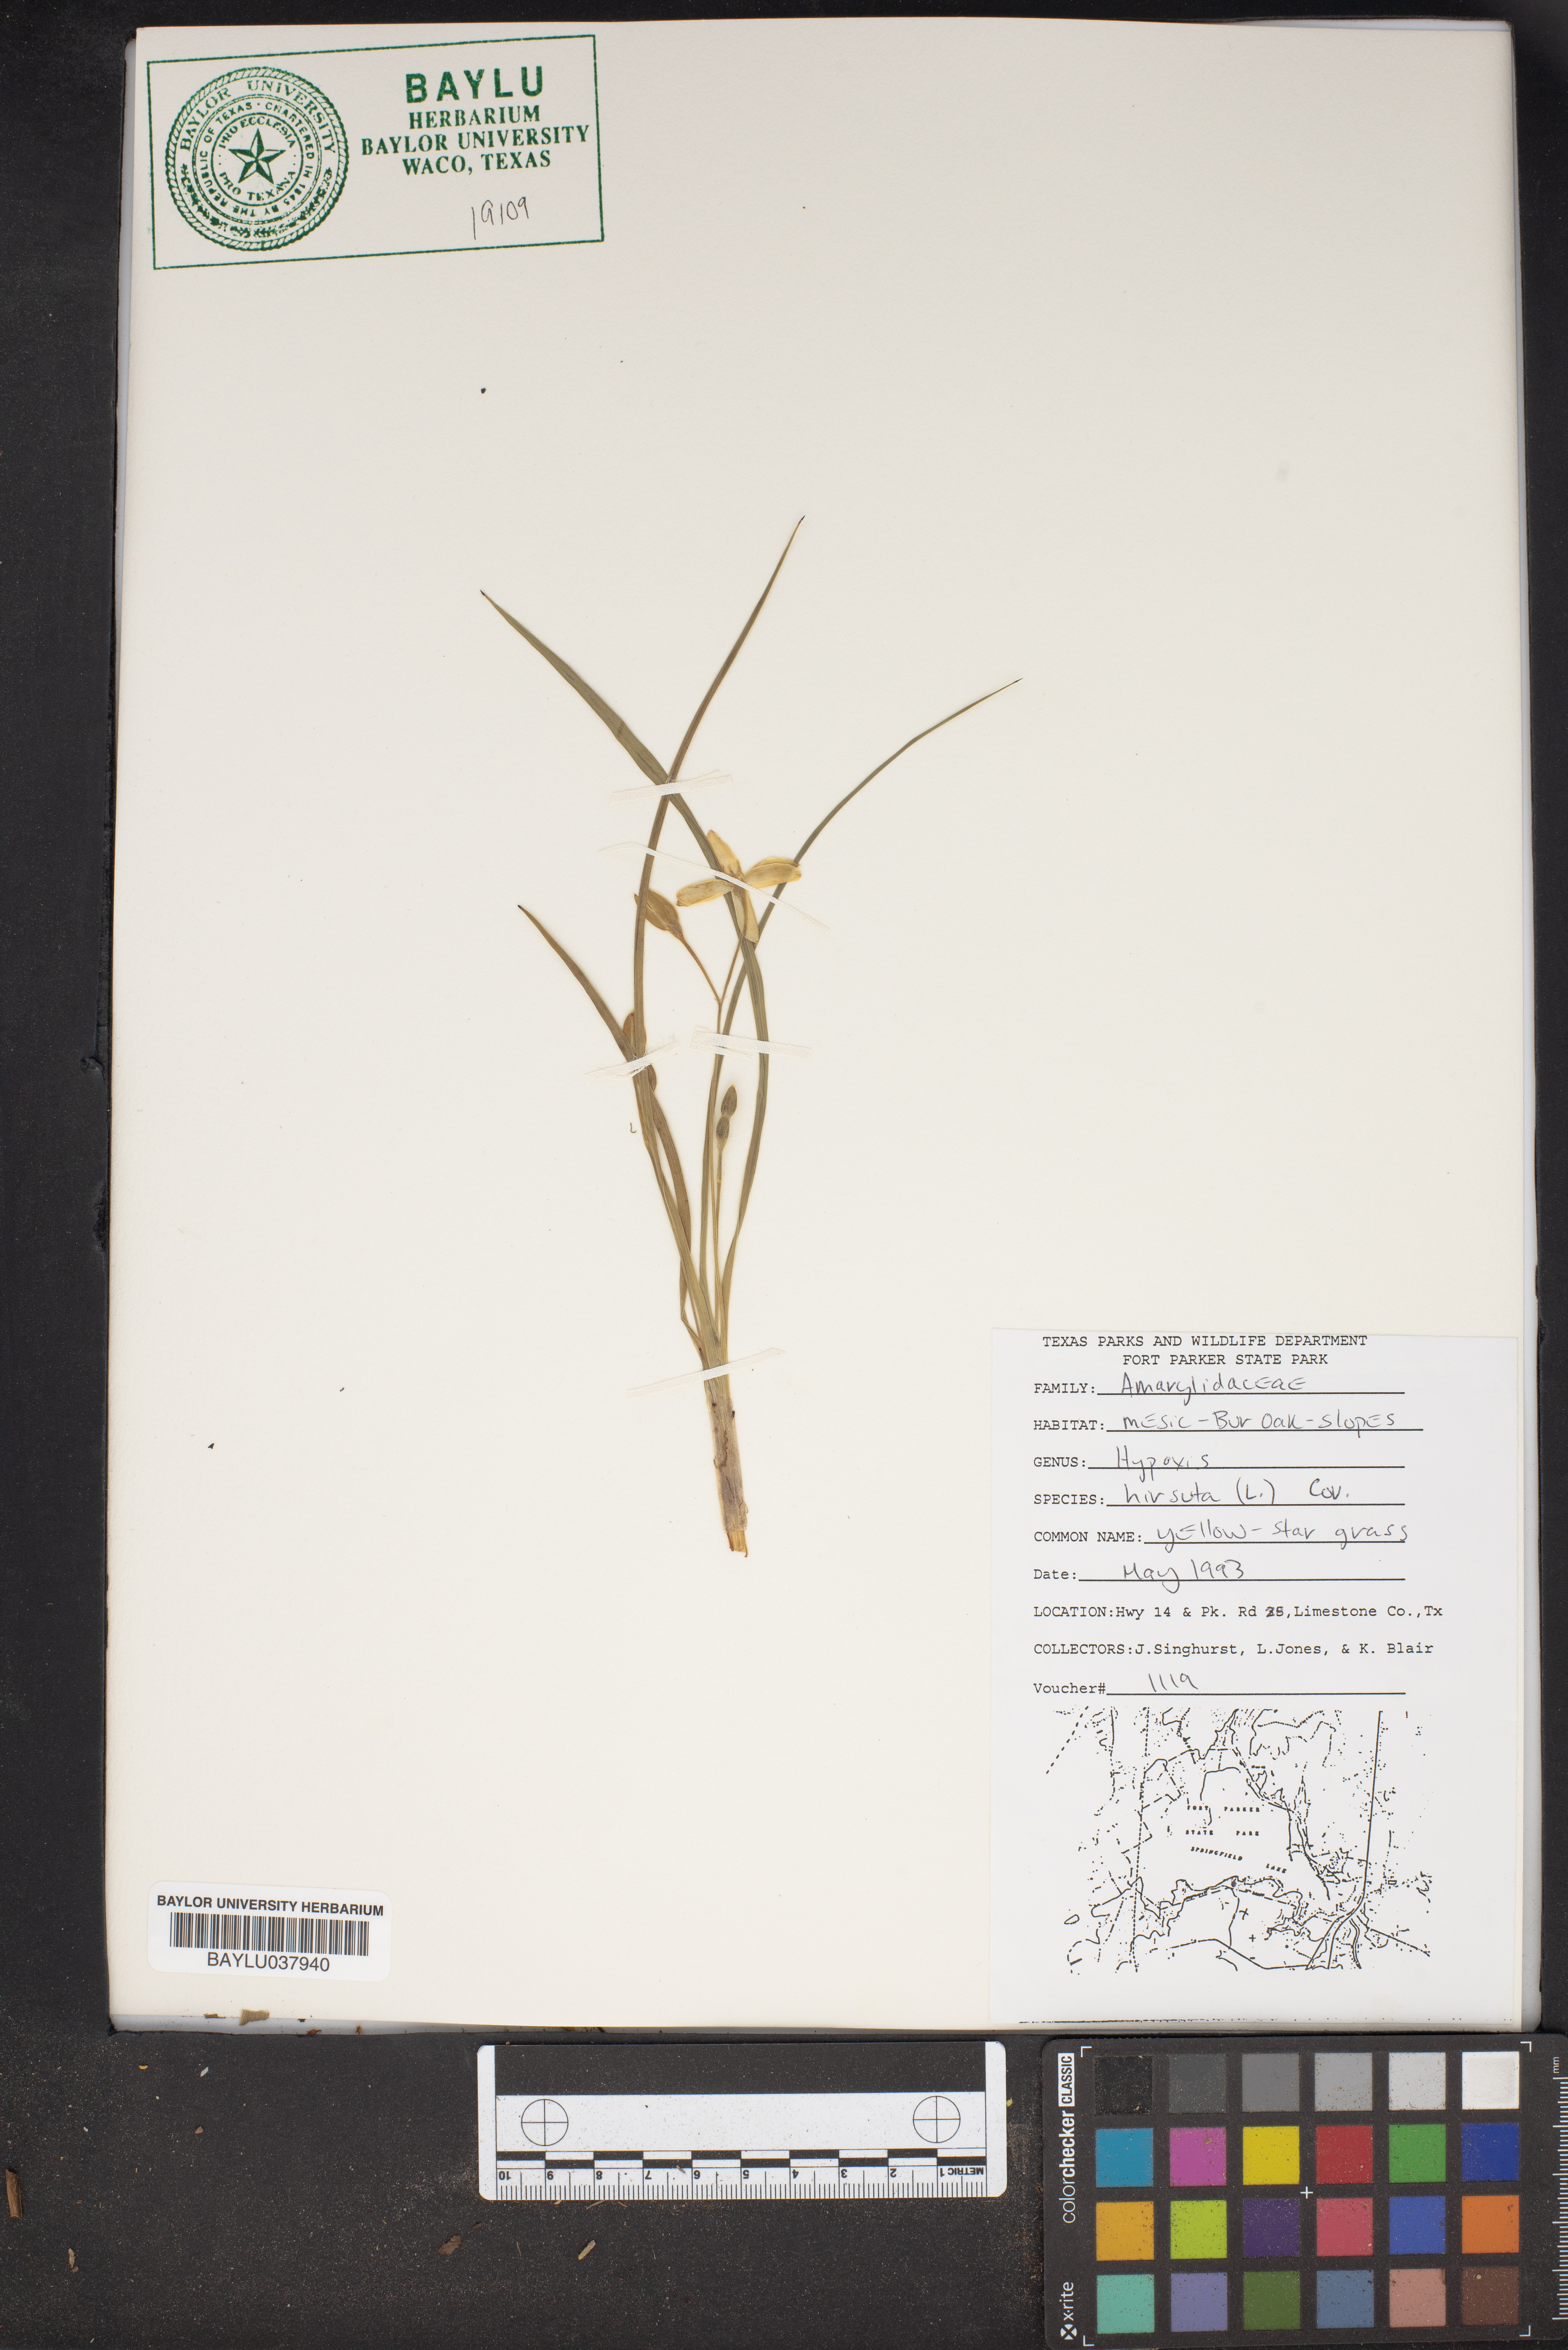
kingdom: Plantae
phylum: Tracheophyta
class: Liliopsida
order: Asparagales
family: Hypoxidaceae
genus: Hypoxis
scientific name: Hypoxis hirsuta
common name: Common goldstar
